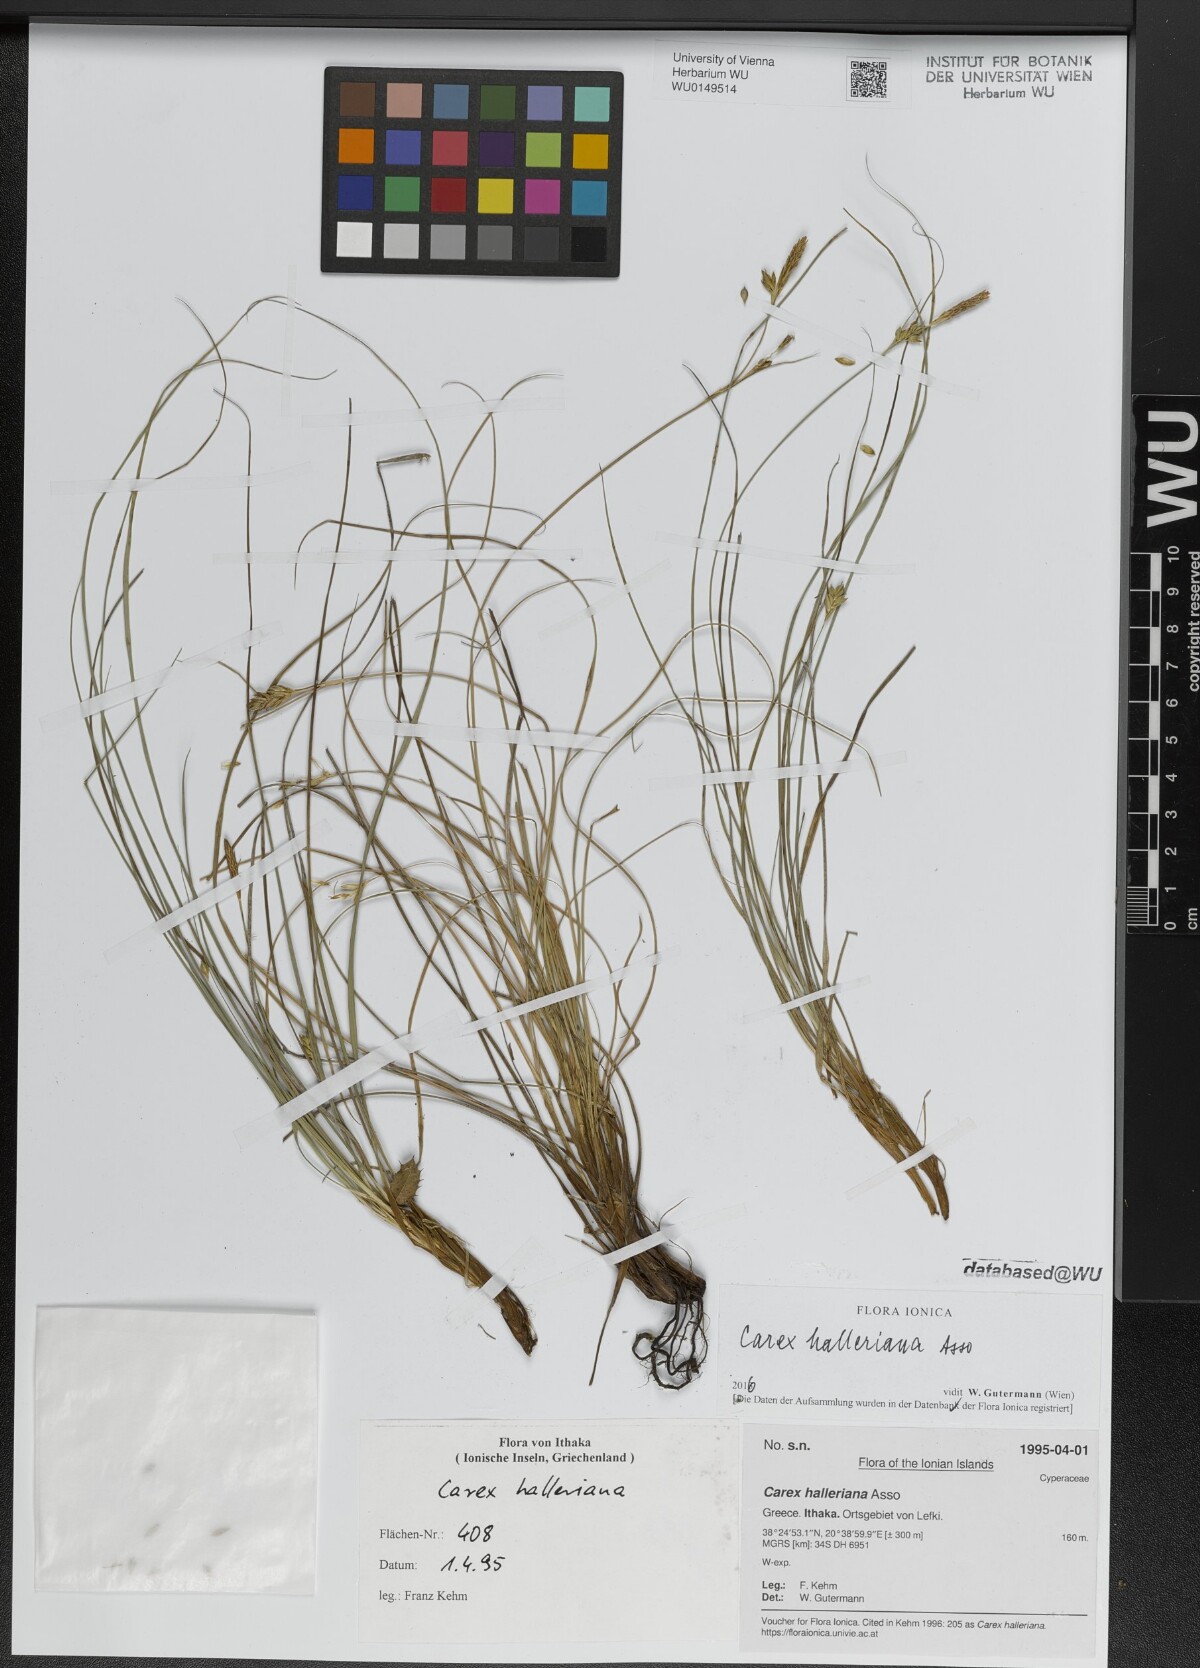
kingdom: Plantae
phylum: Tracheophyta
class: Liliopsida
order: Poales
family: Cyperaceae
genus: Carex
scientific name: Carex halleriana
